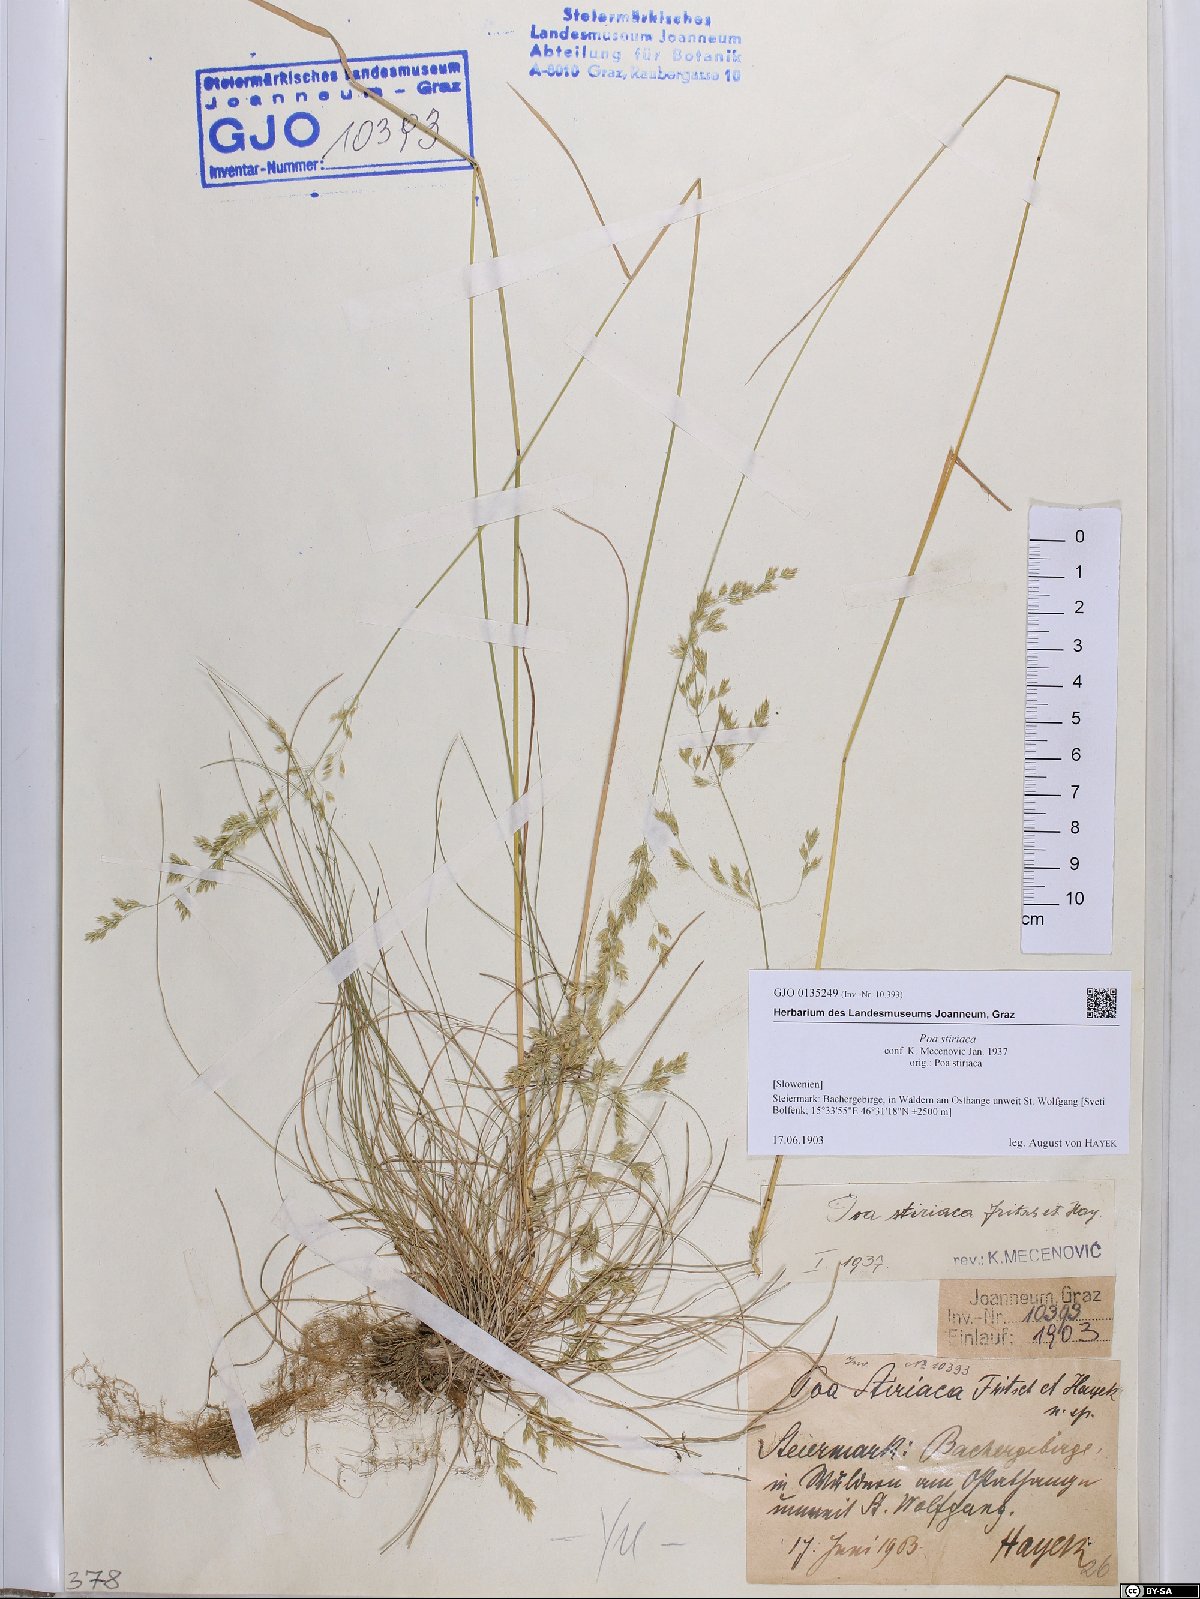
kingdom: Plantae
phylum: Tracheophyta
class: Liliopsida
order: Poales
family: Poaceae
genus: Poa
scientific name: Poa stiriaca
